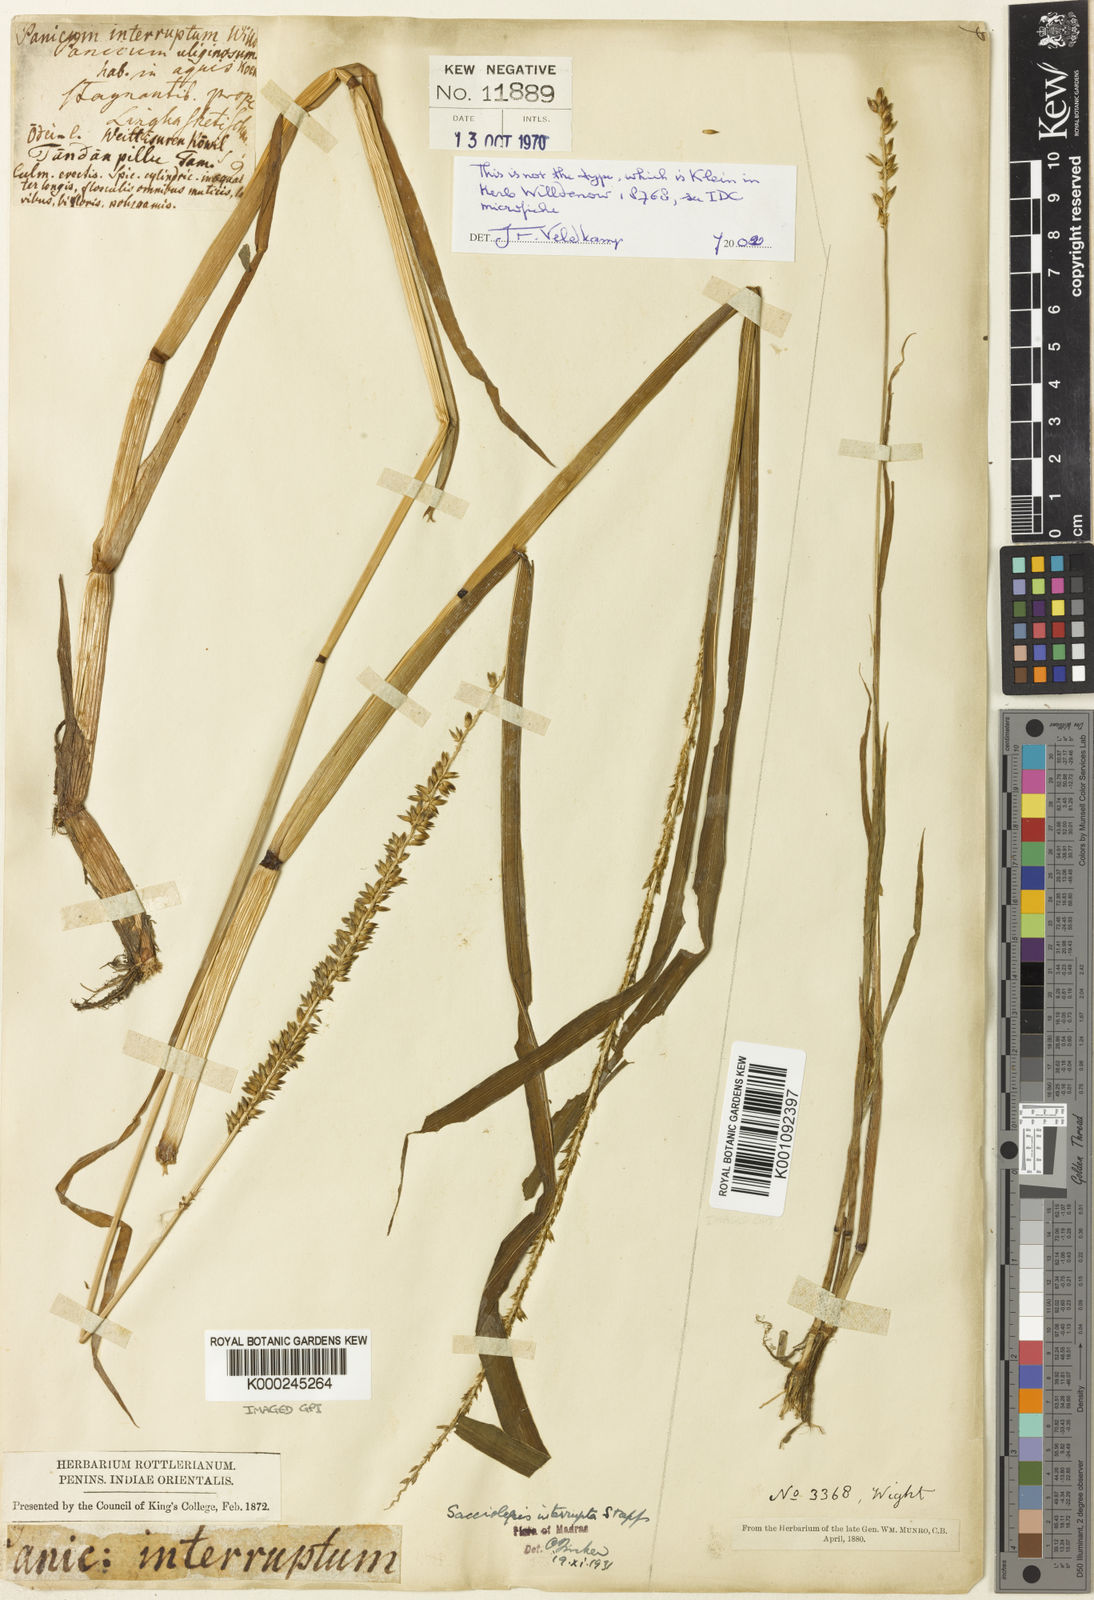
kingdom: Plantae
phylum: Tracheophyta
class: Liliopsida
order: Poales
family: Poaceae
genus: Sacciolepis
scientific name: Sacciolepis interrupta
